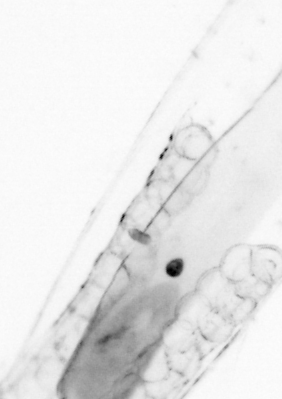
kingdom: Animalia
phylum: Chaetognatha
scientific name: Chaetognatha
